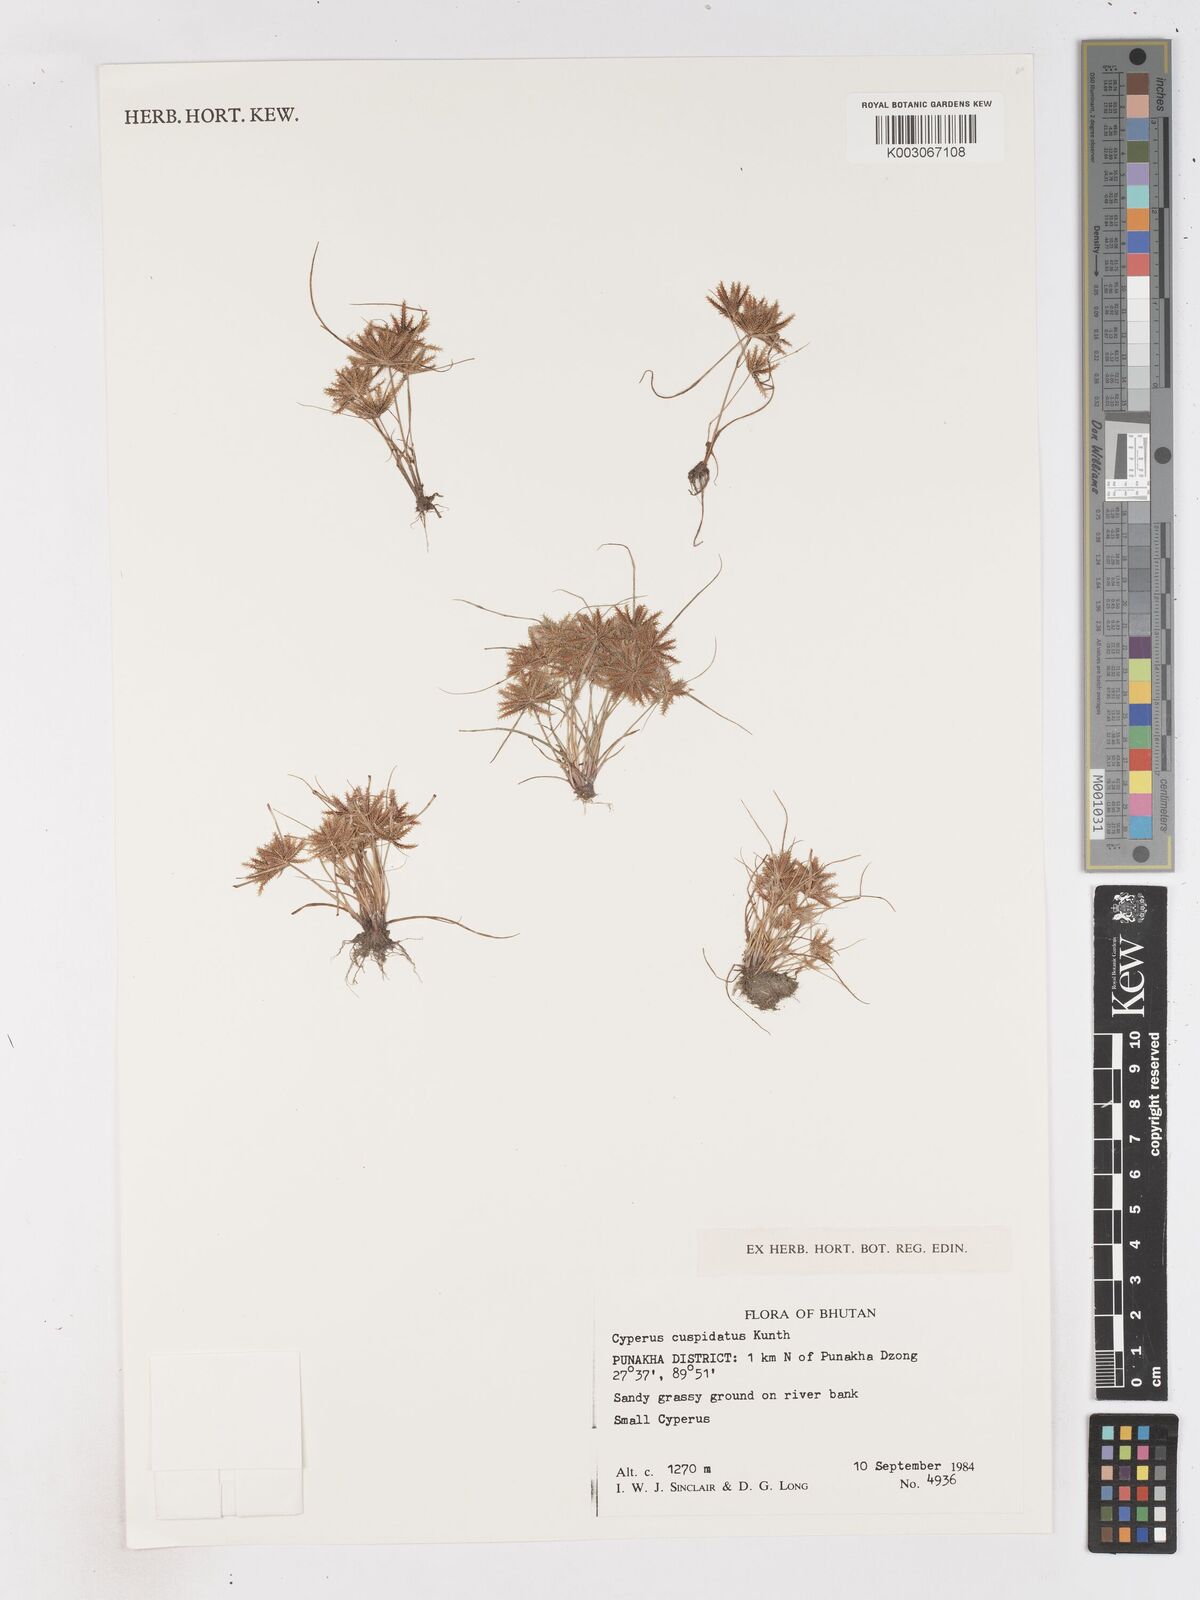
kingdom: Plantae
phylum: Tracheophyta
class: Liliopsida
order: Poales
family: Cyperaceae
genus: Cyperus
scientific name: Cyperus cuspidatus
